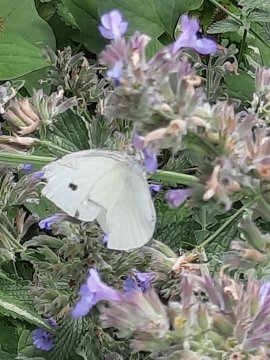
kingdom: Animalia
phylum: Arthropoda
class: Insecta
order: Lepidoptera
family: Pieridae
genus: Pieris
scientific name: Pieris rapae
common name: Cabbage White
